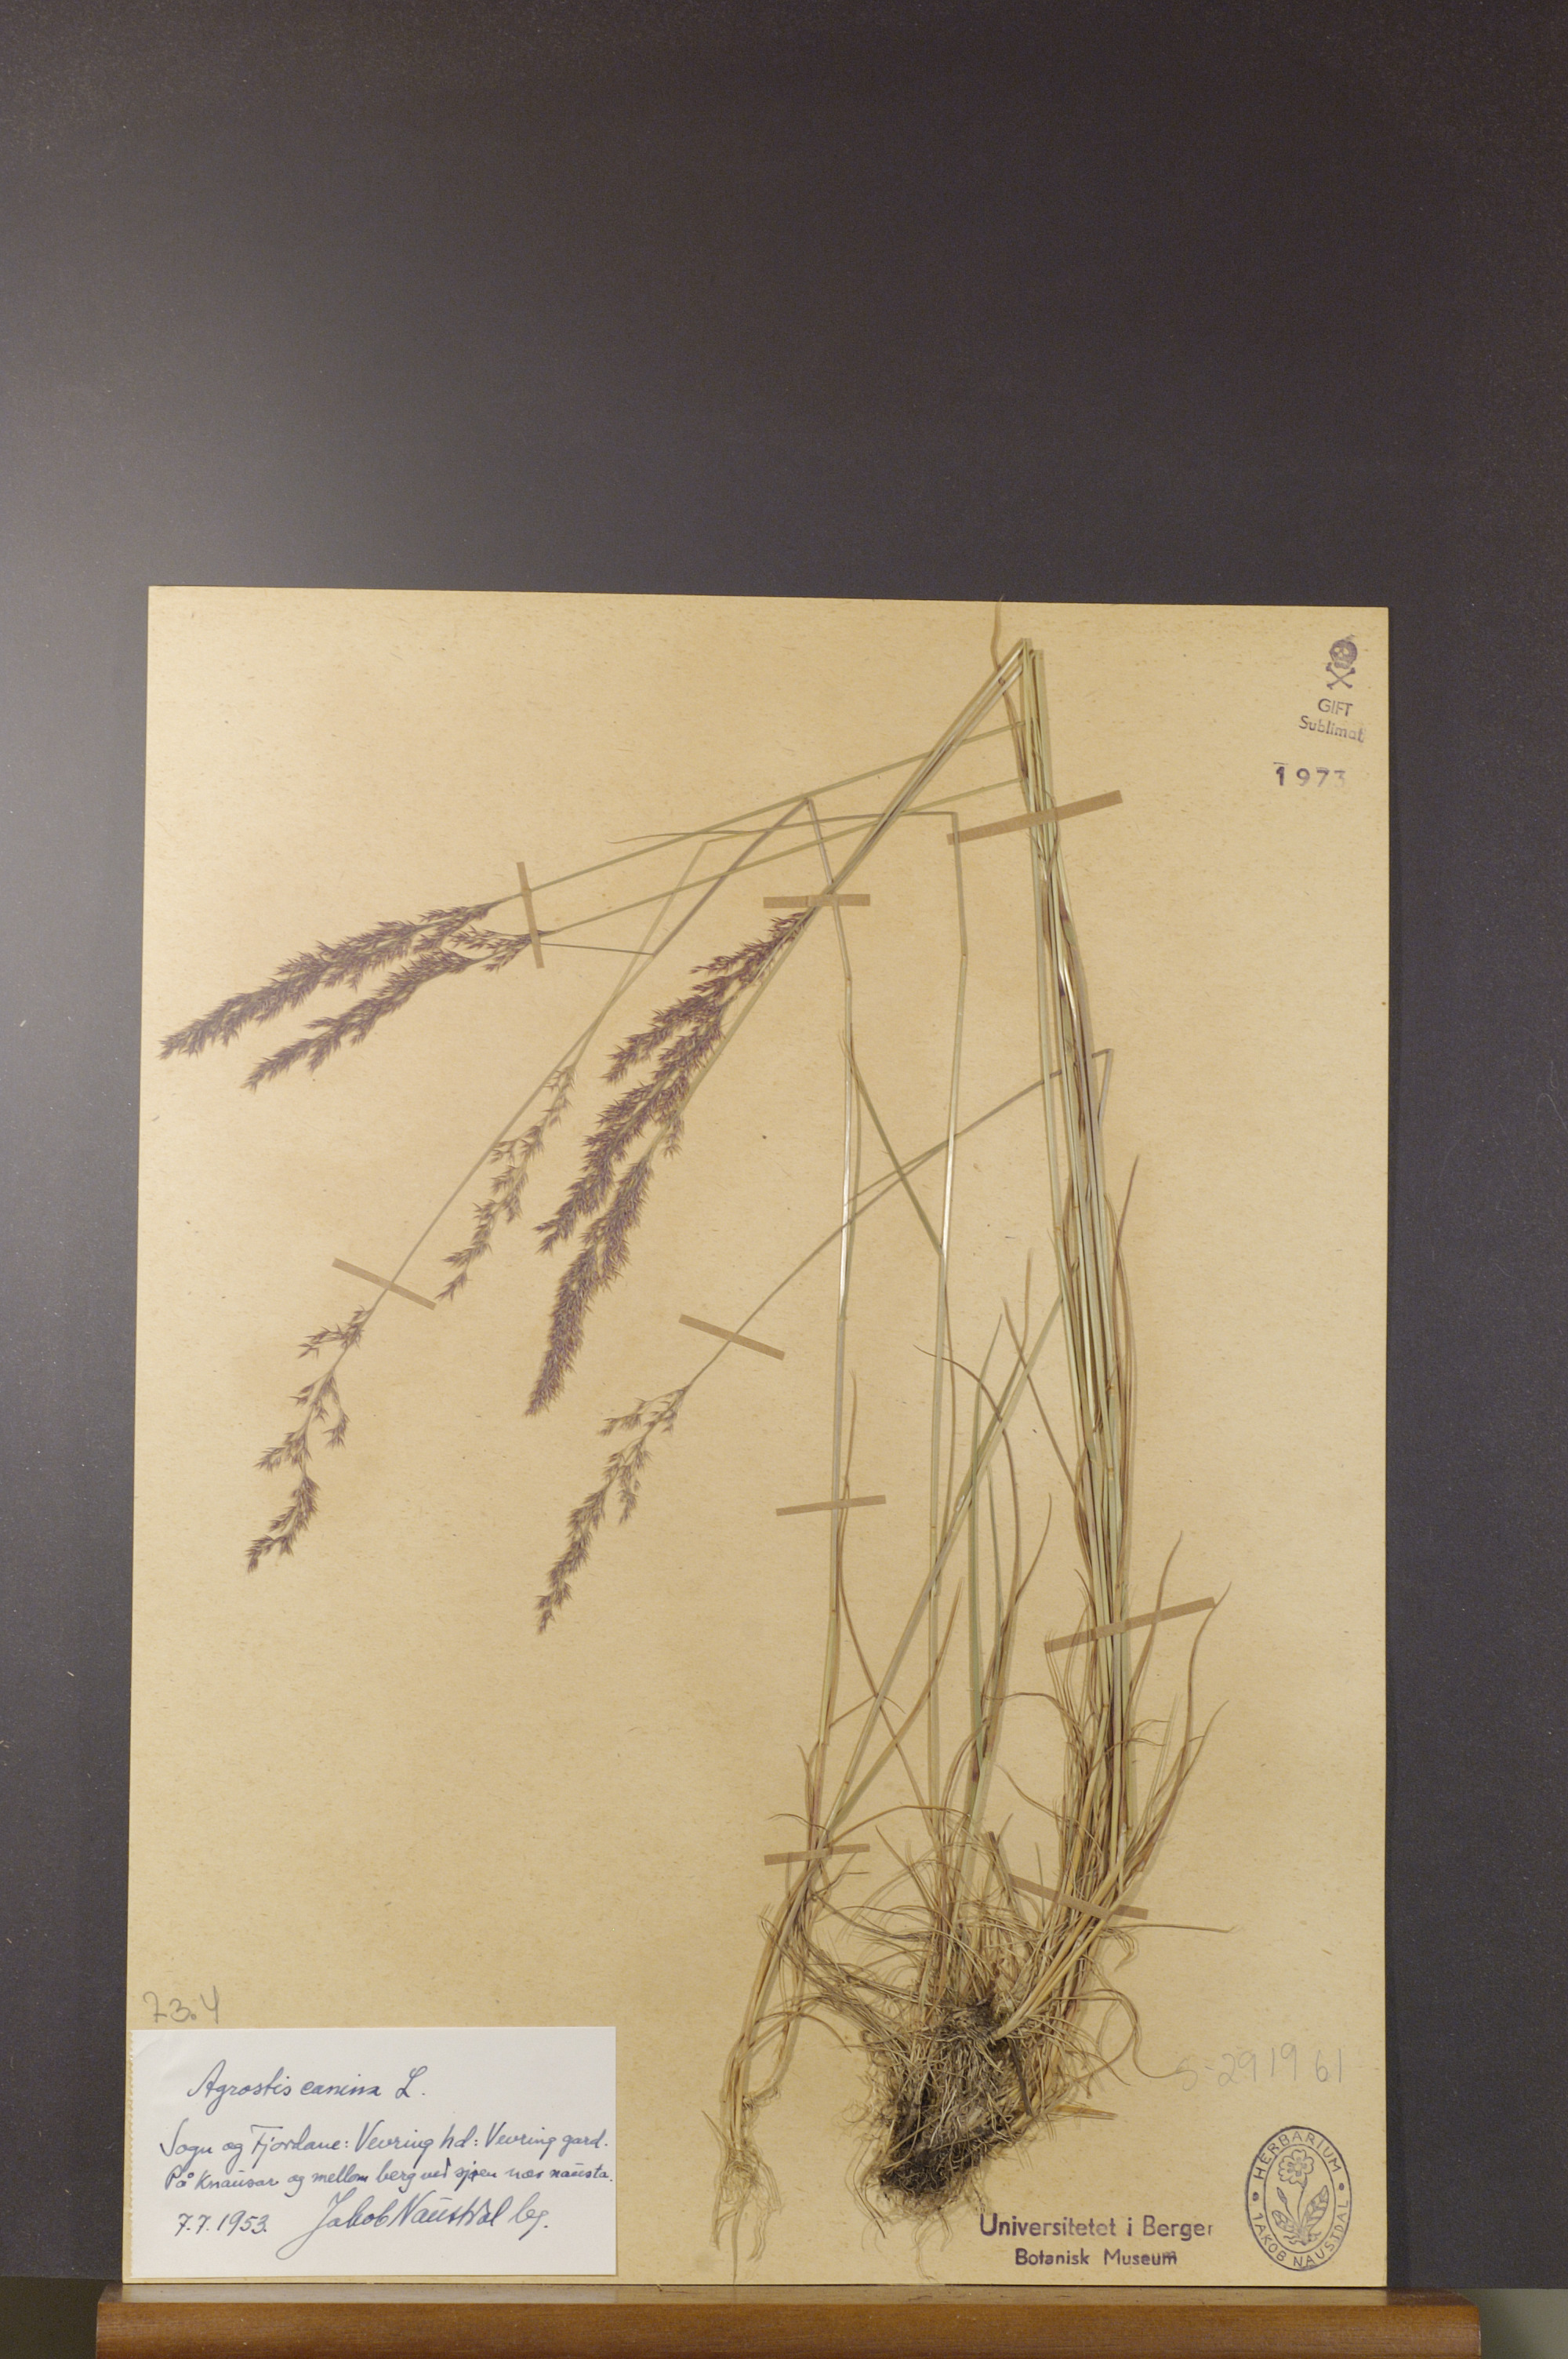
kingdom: Plantae
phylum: Tracheophyta
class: Liliopsida
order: Poales
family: Poaceae
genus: Agrostis
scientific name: Agrostis canina
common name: Velvet bent
